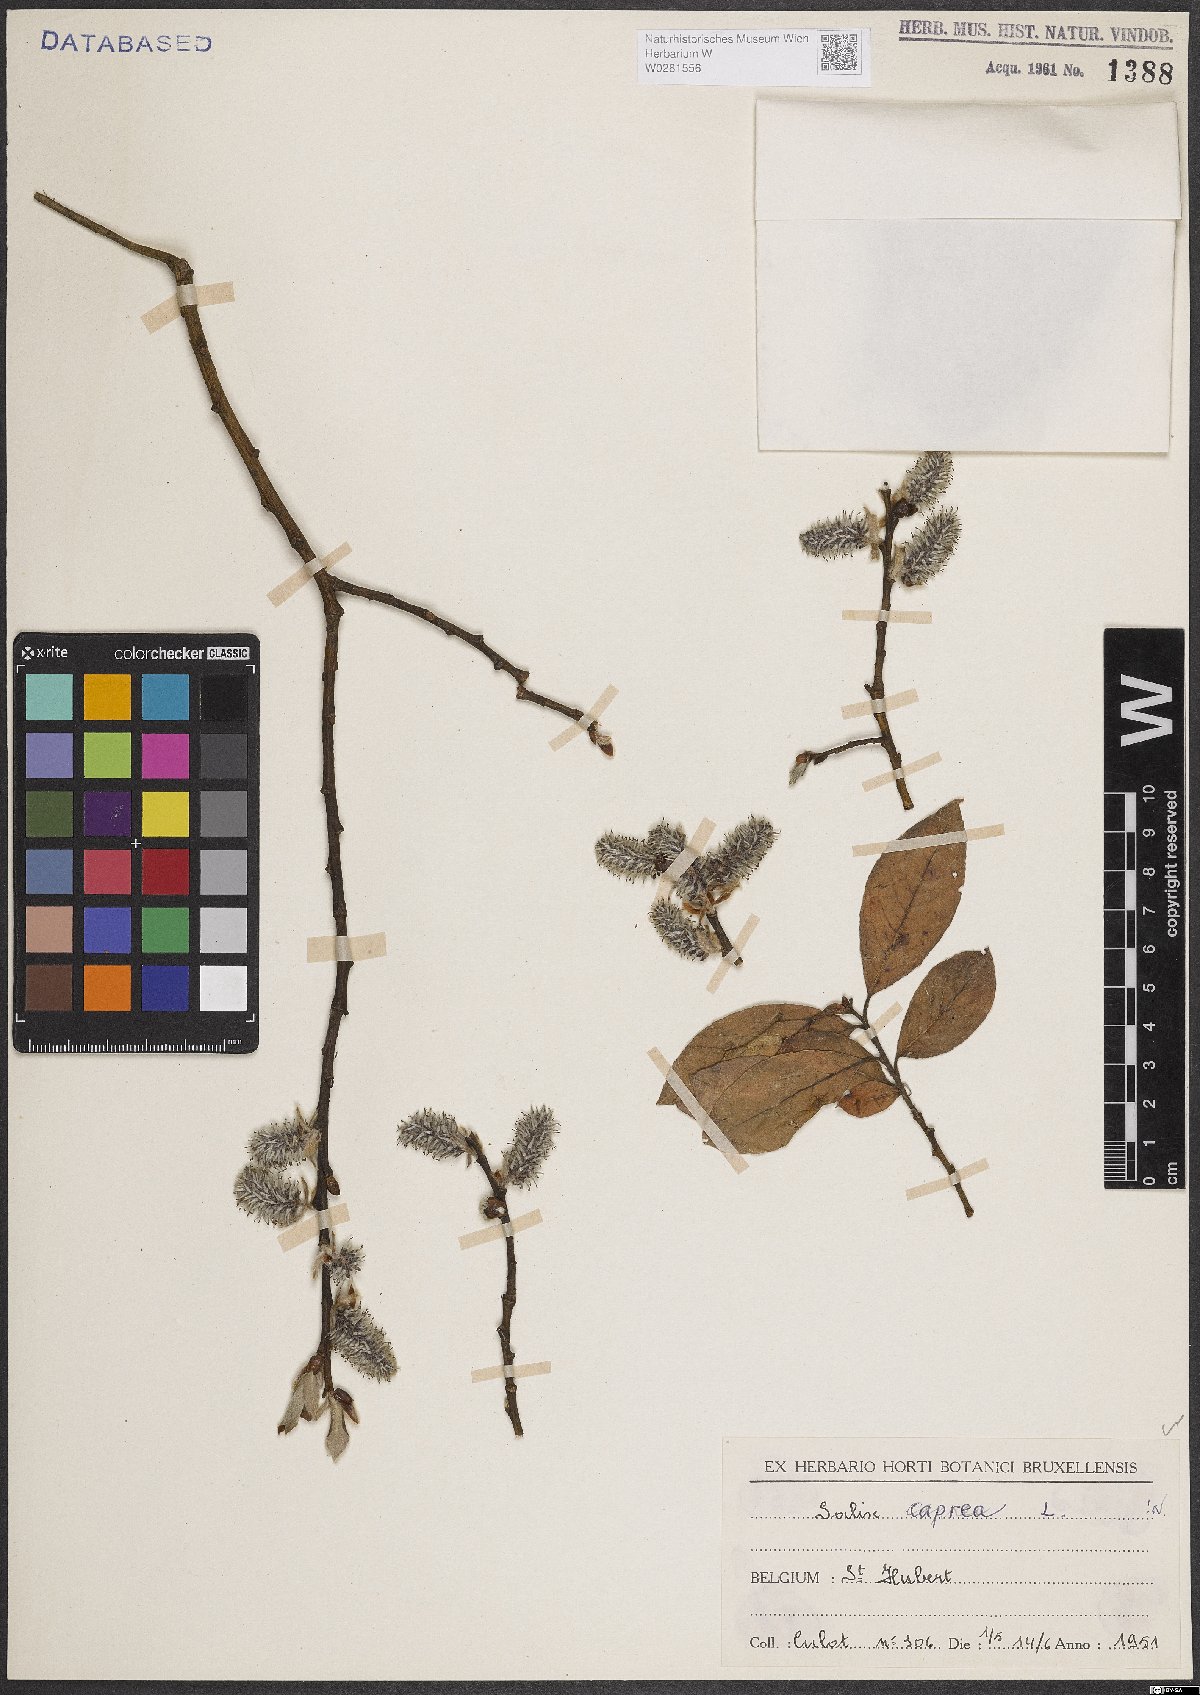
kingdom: Plantae
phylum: Tracheophyta
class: Magnoliopsida
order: Malpighiales
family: Salicaceae
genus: Salix
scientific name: Salix caprea
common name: Goat willow
